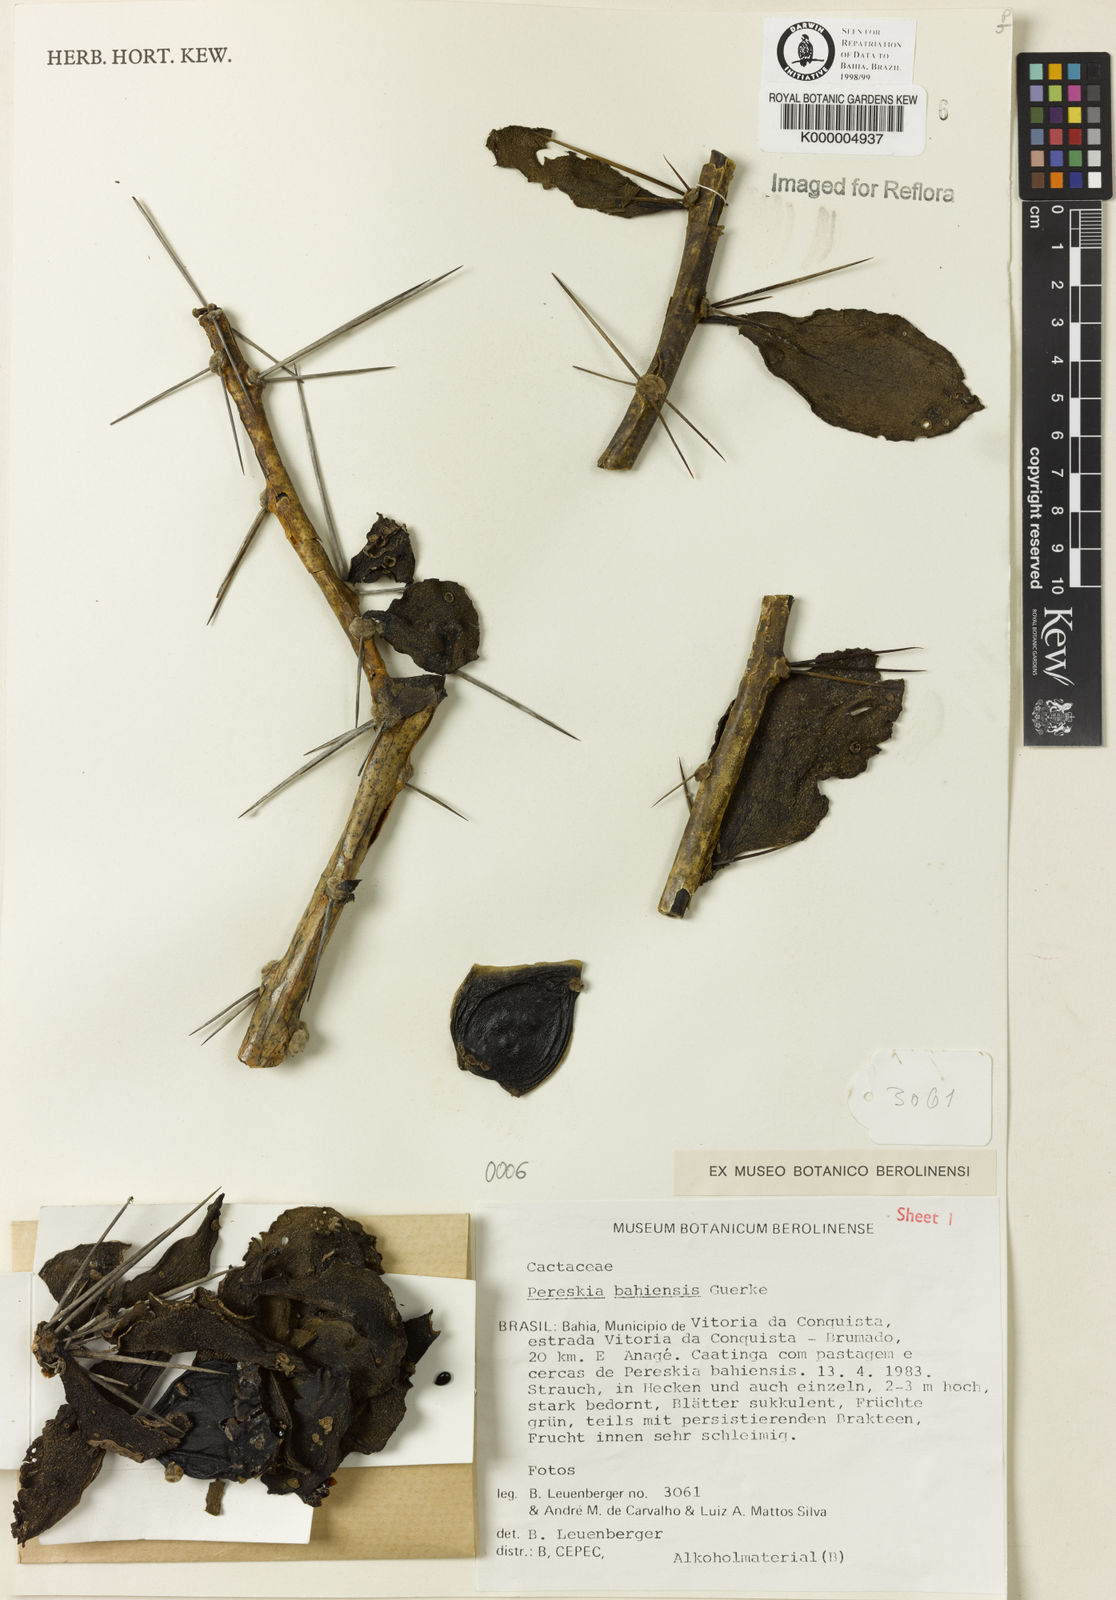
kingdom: Plantae
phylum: Tracheophyta
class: Magnoliopsida
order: Caryophyllales
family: Cactaceae
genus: Pereskia
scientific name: Pereskia
